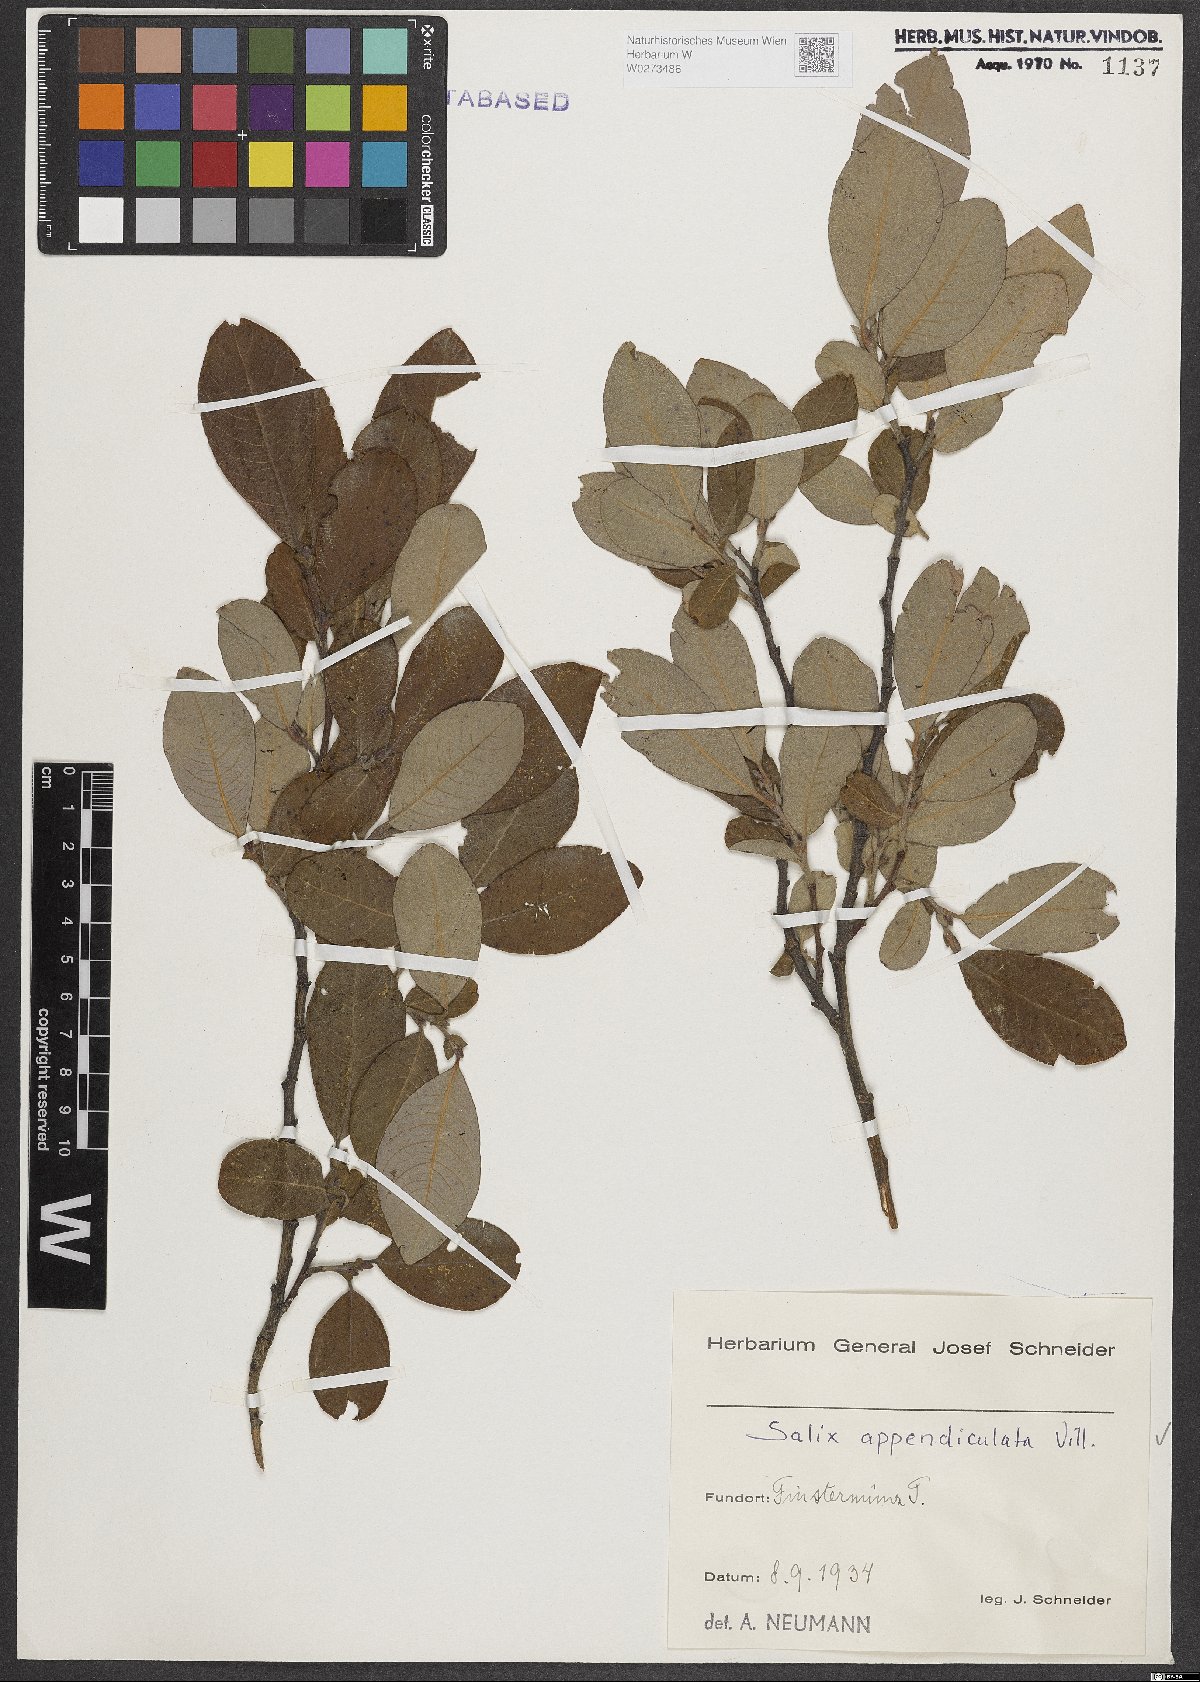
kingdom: Plantae
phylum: Tracheophyta
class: Magnoliopsida
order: Malpighiales
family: Salicaceae
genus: Salix
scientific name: Salix appendiculata
